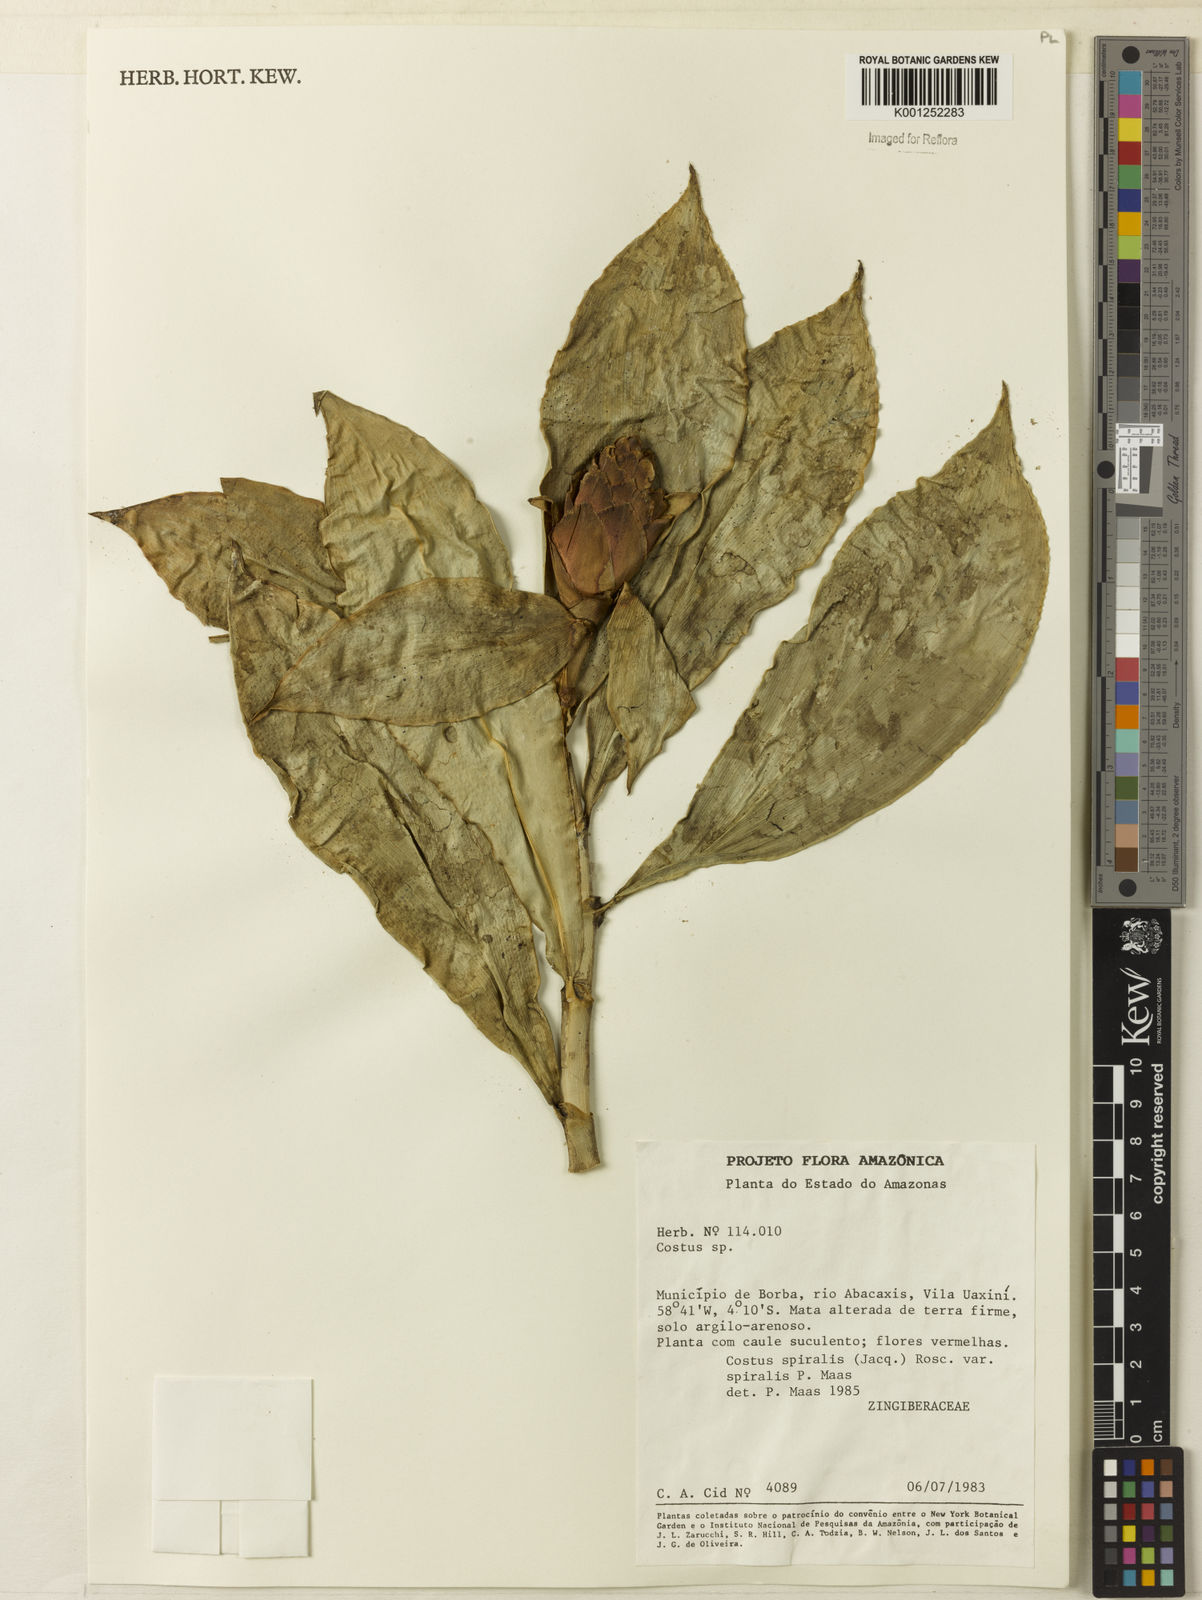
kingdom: Plantae
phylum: Tracheophyta
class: Liliopsida
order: Zingiberales
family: Costaceae
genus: Costus
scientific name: Costus spiralis
